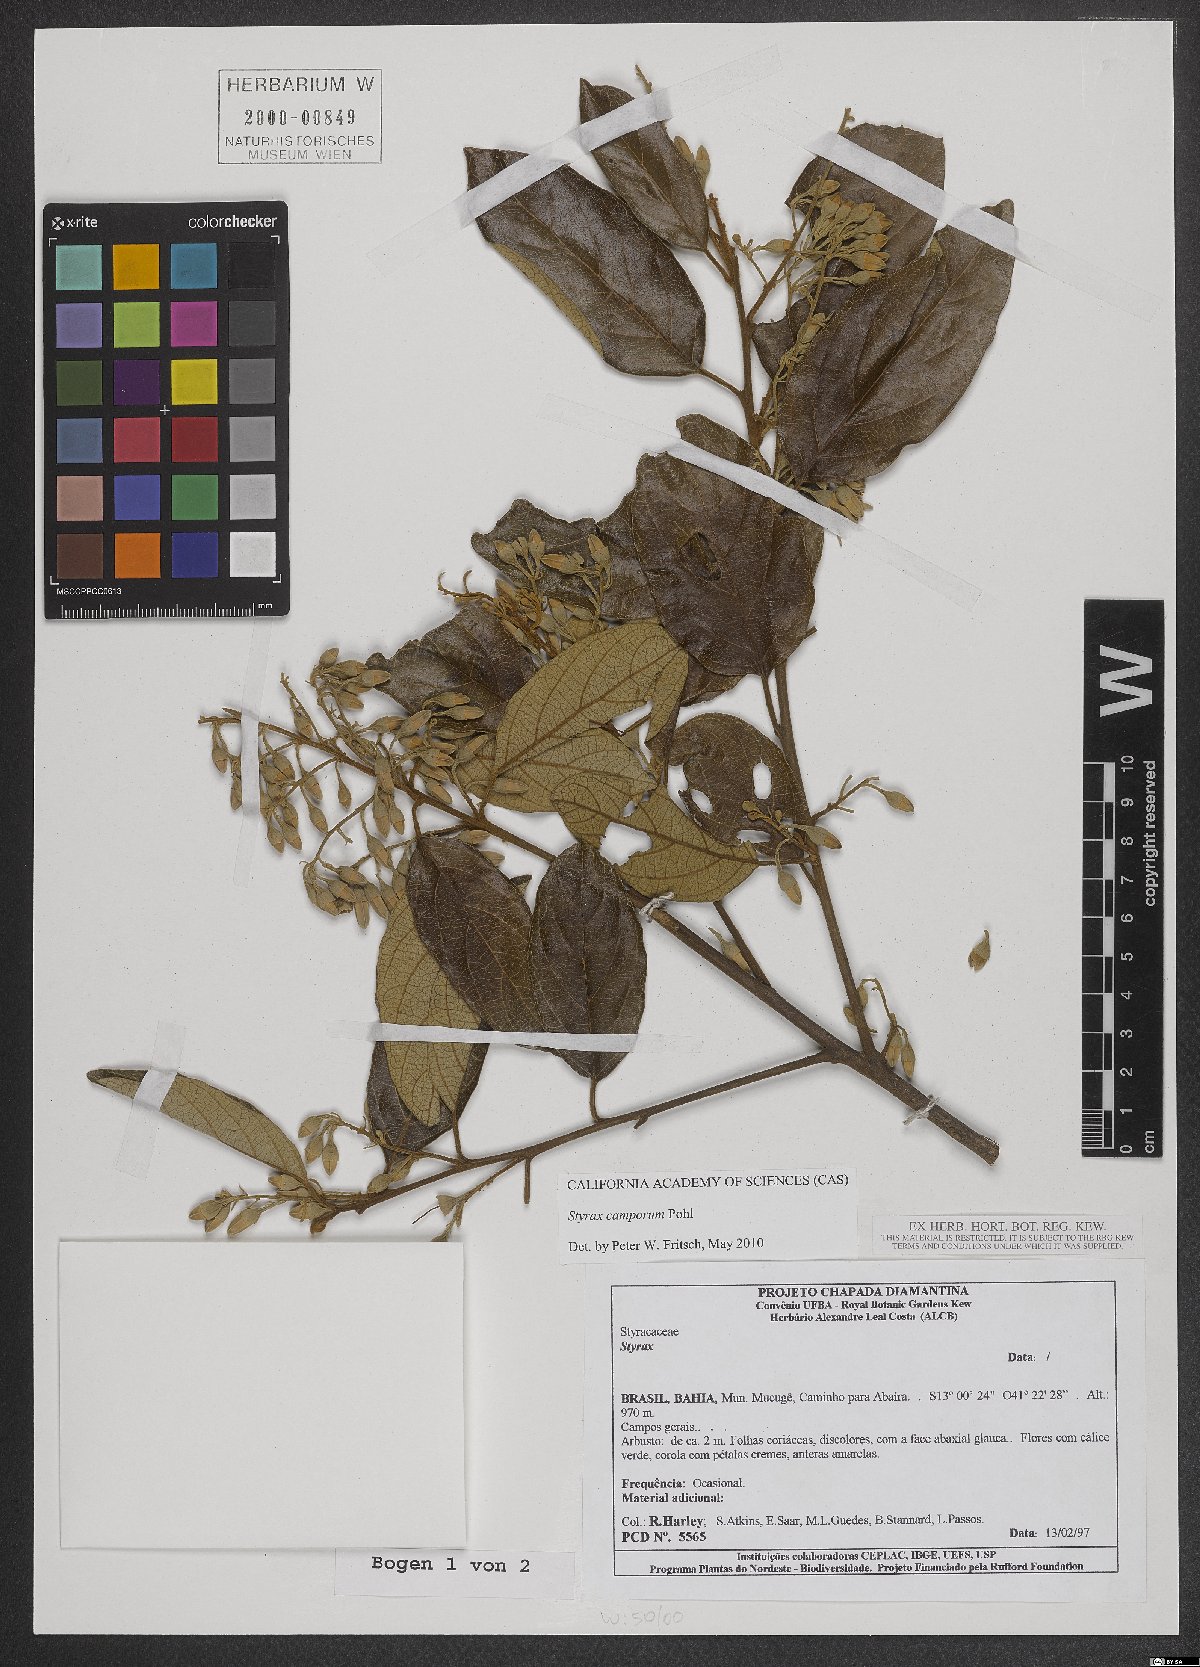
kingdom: Plantae
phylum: Tracheophyta
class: Magnoliopsida
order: Ericales
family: Styracaceae
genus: Styrax
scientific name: Styrax camporum
